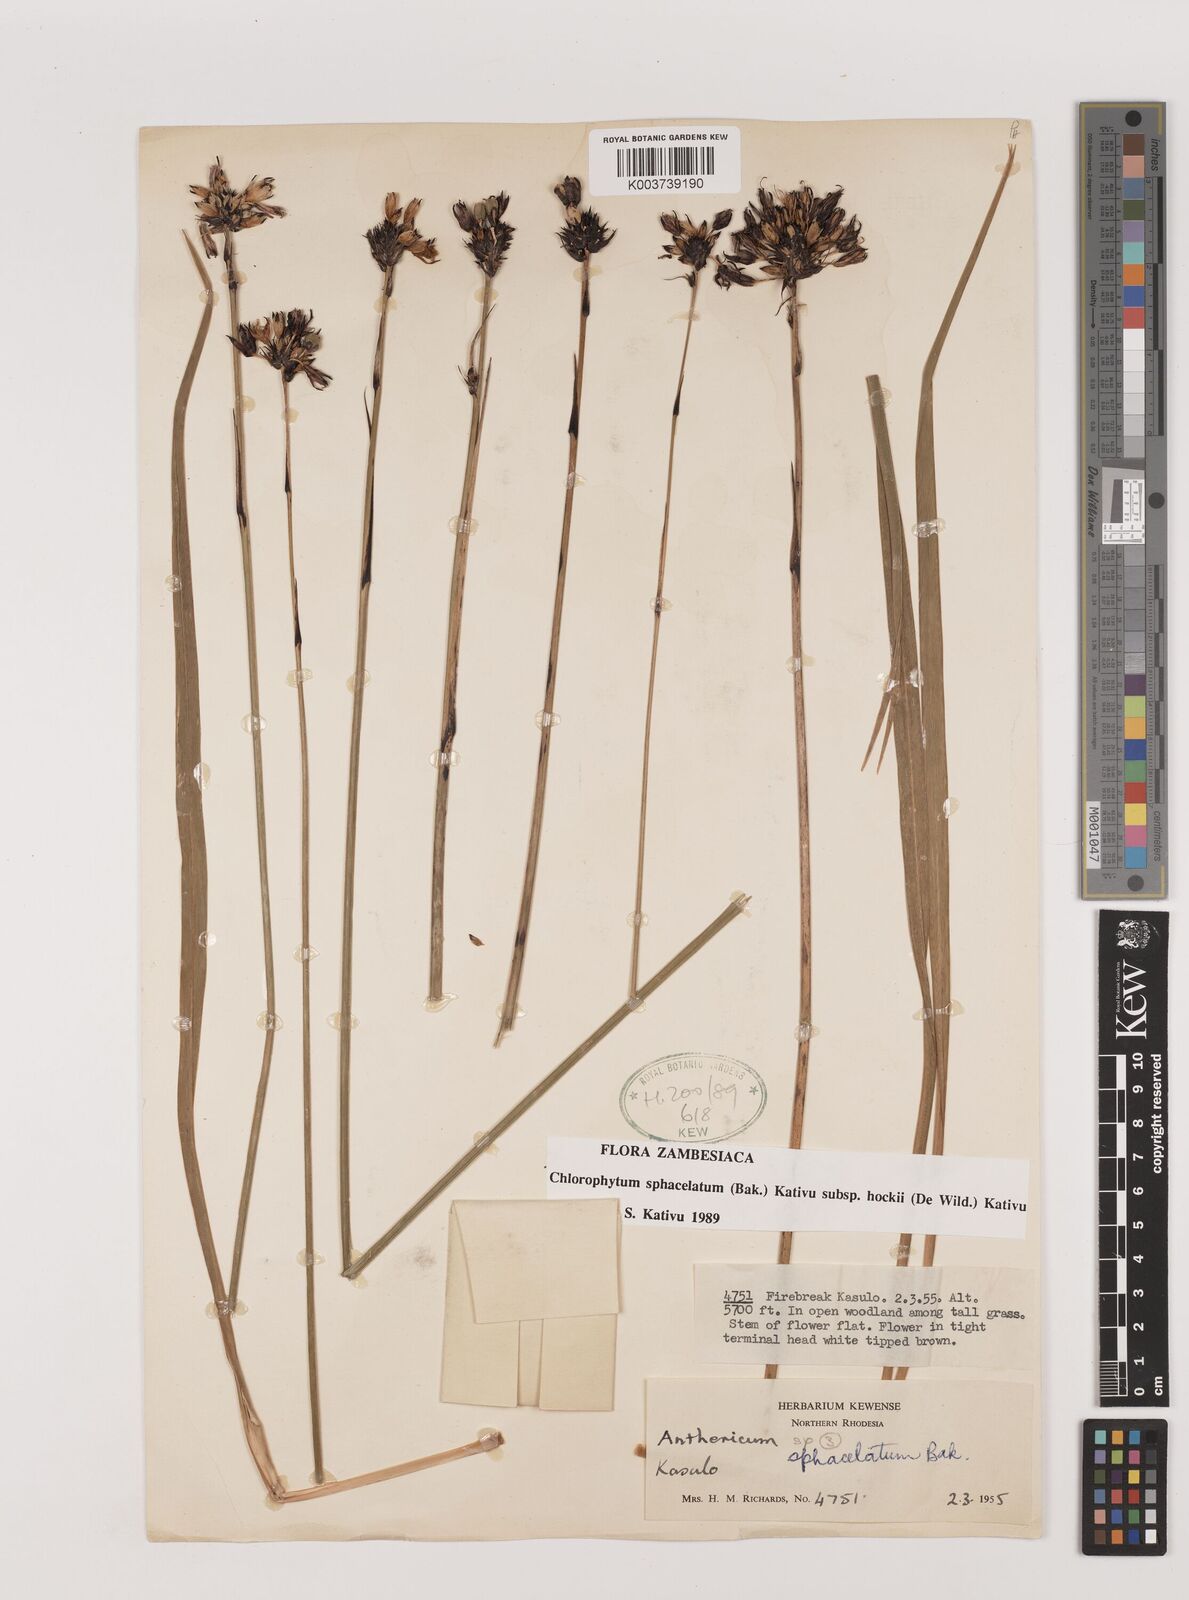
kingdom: Plantae
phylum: Tracheophyta
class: Liliopsida
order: Asparagales
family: Asparagaceae
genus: Chlorophytum
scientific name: Chlorophytum sphacelatum
